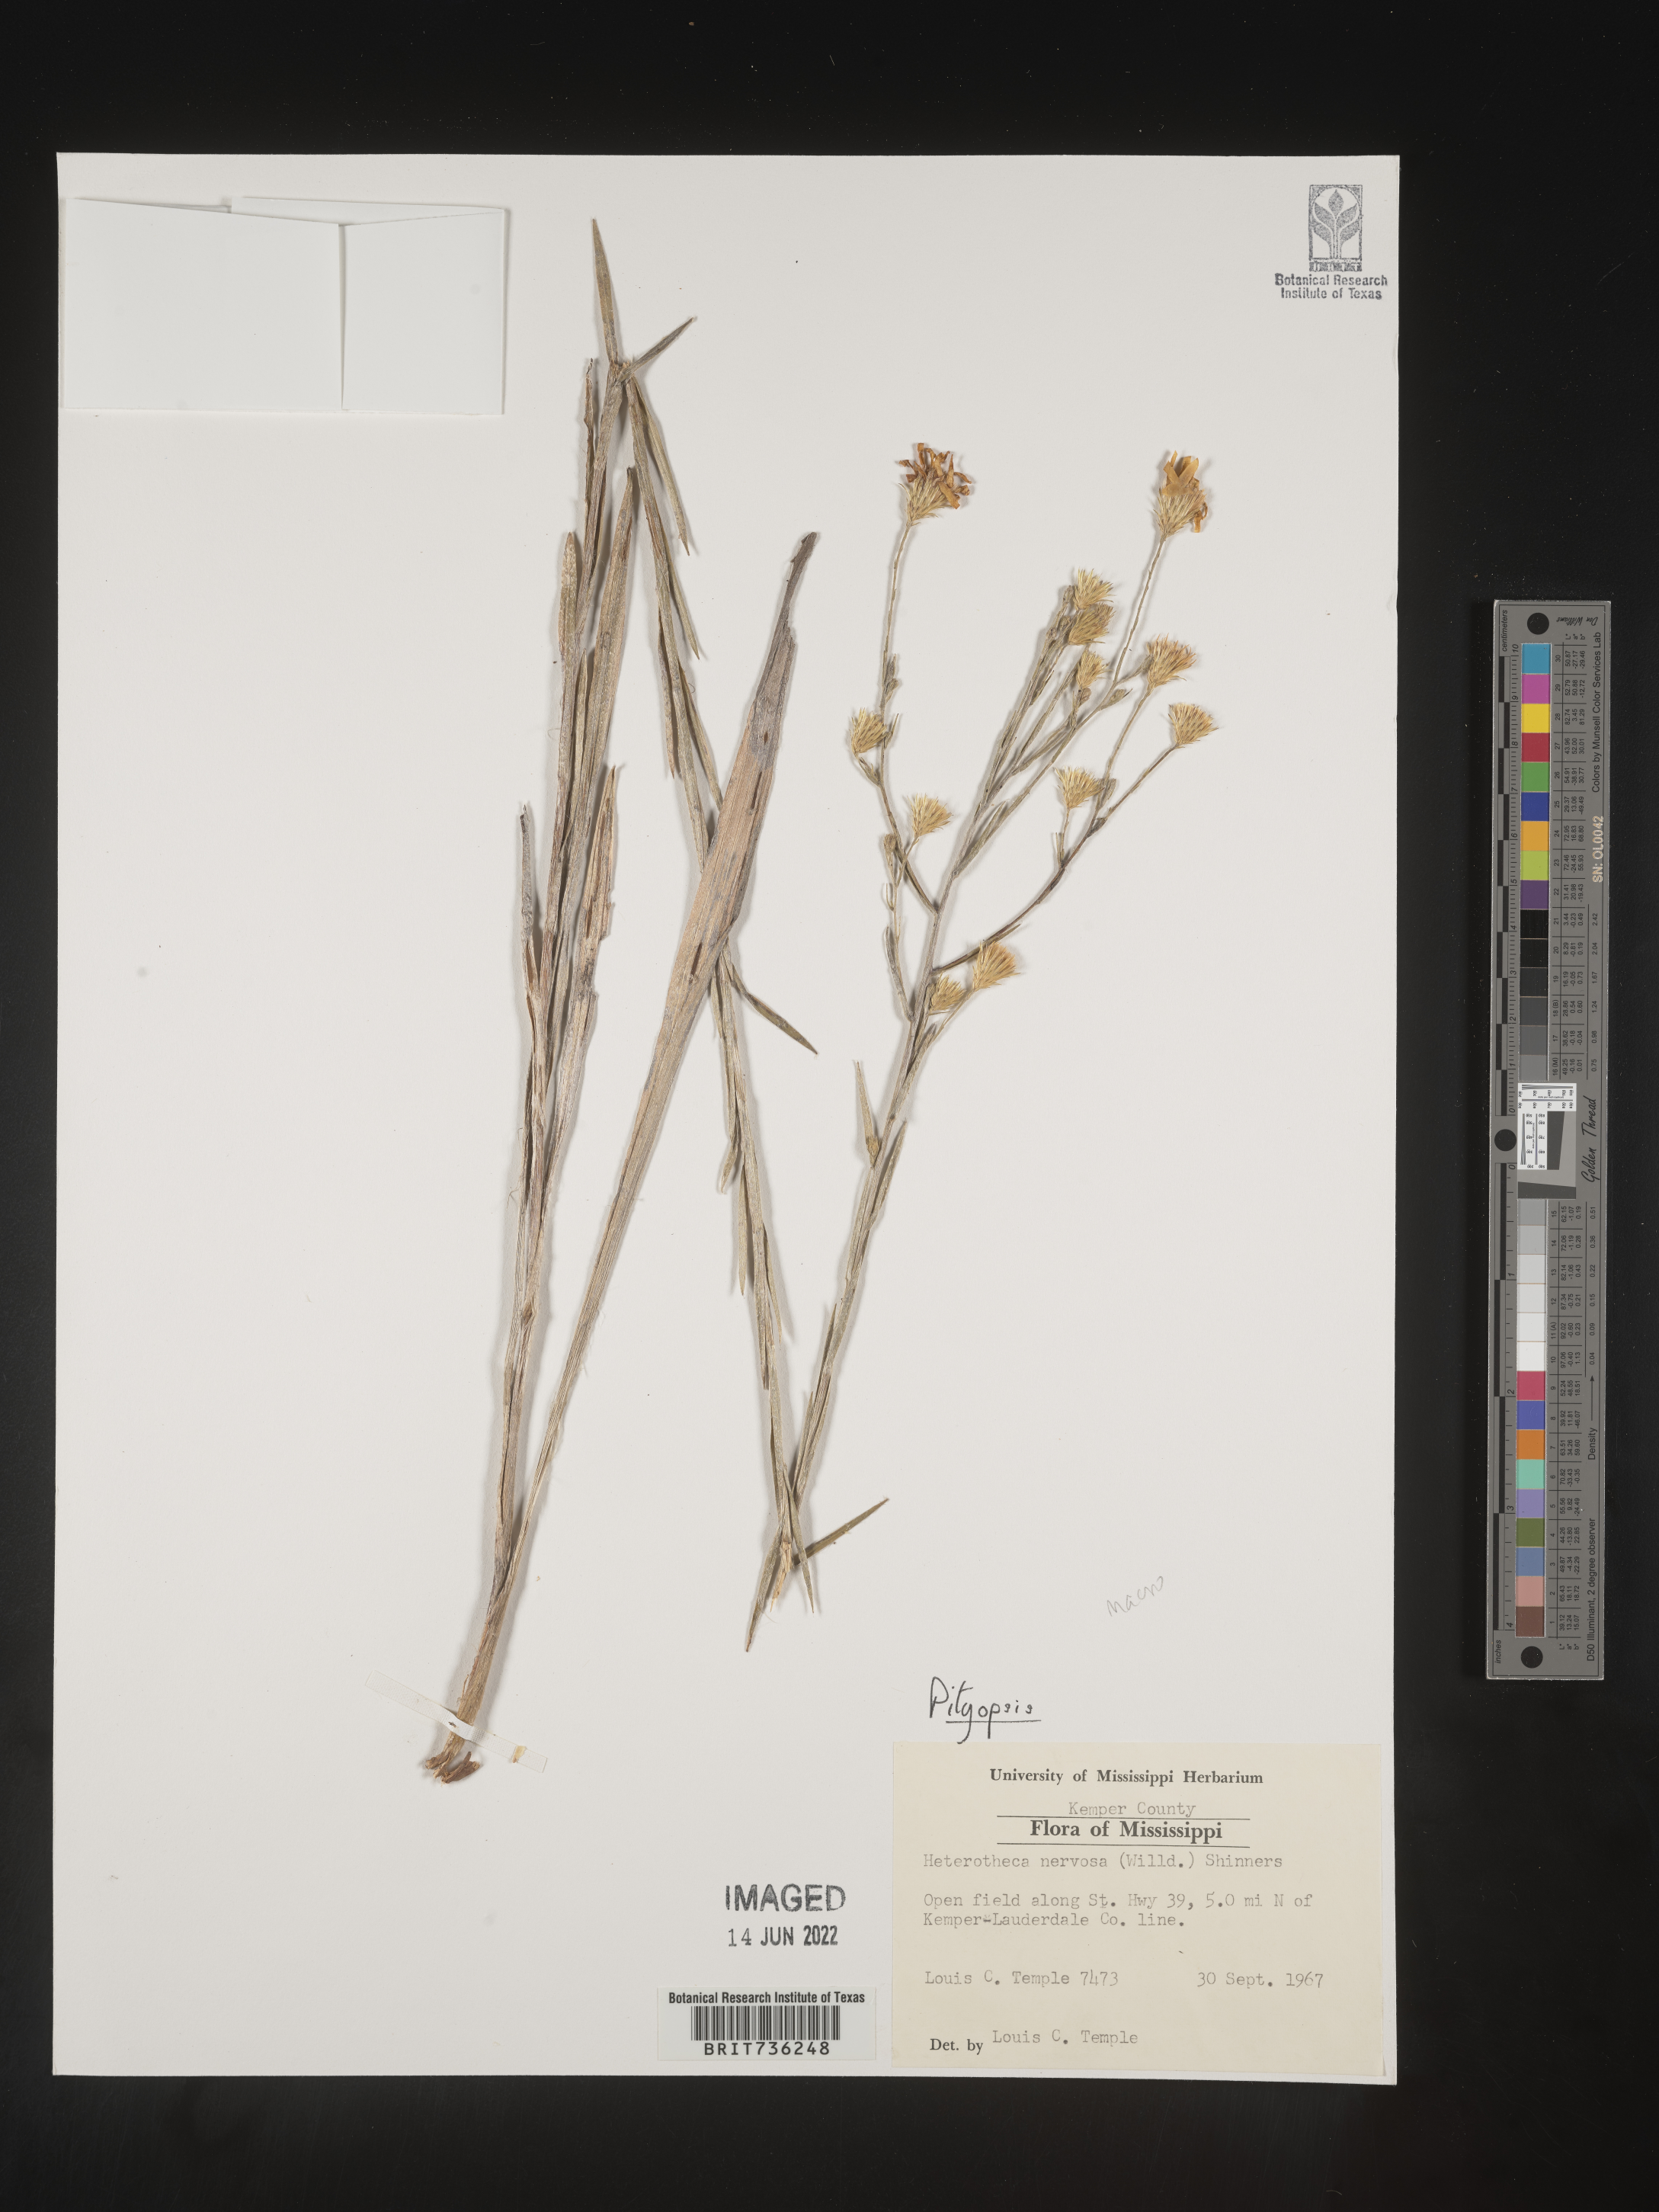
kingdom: Plantae
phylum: Tracheophyta
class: Magnoliopsida
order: Asterales
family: Asteraceae
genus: Pityopsis
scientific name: Pityopsis graminifolia
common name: Grass-leaf golden-aster
